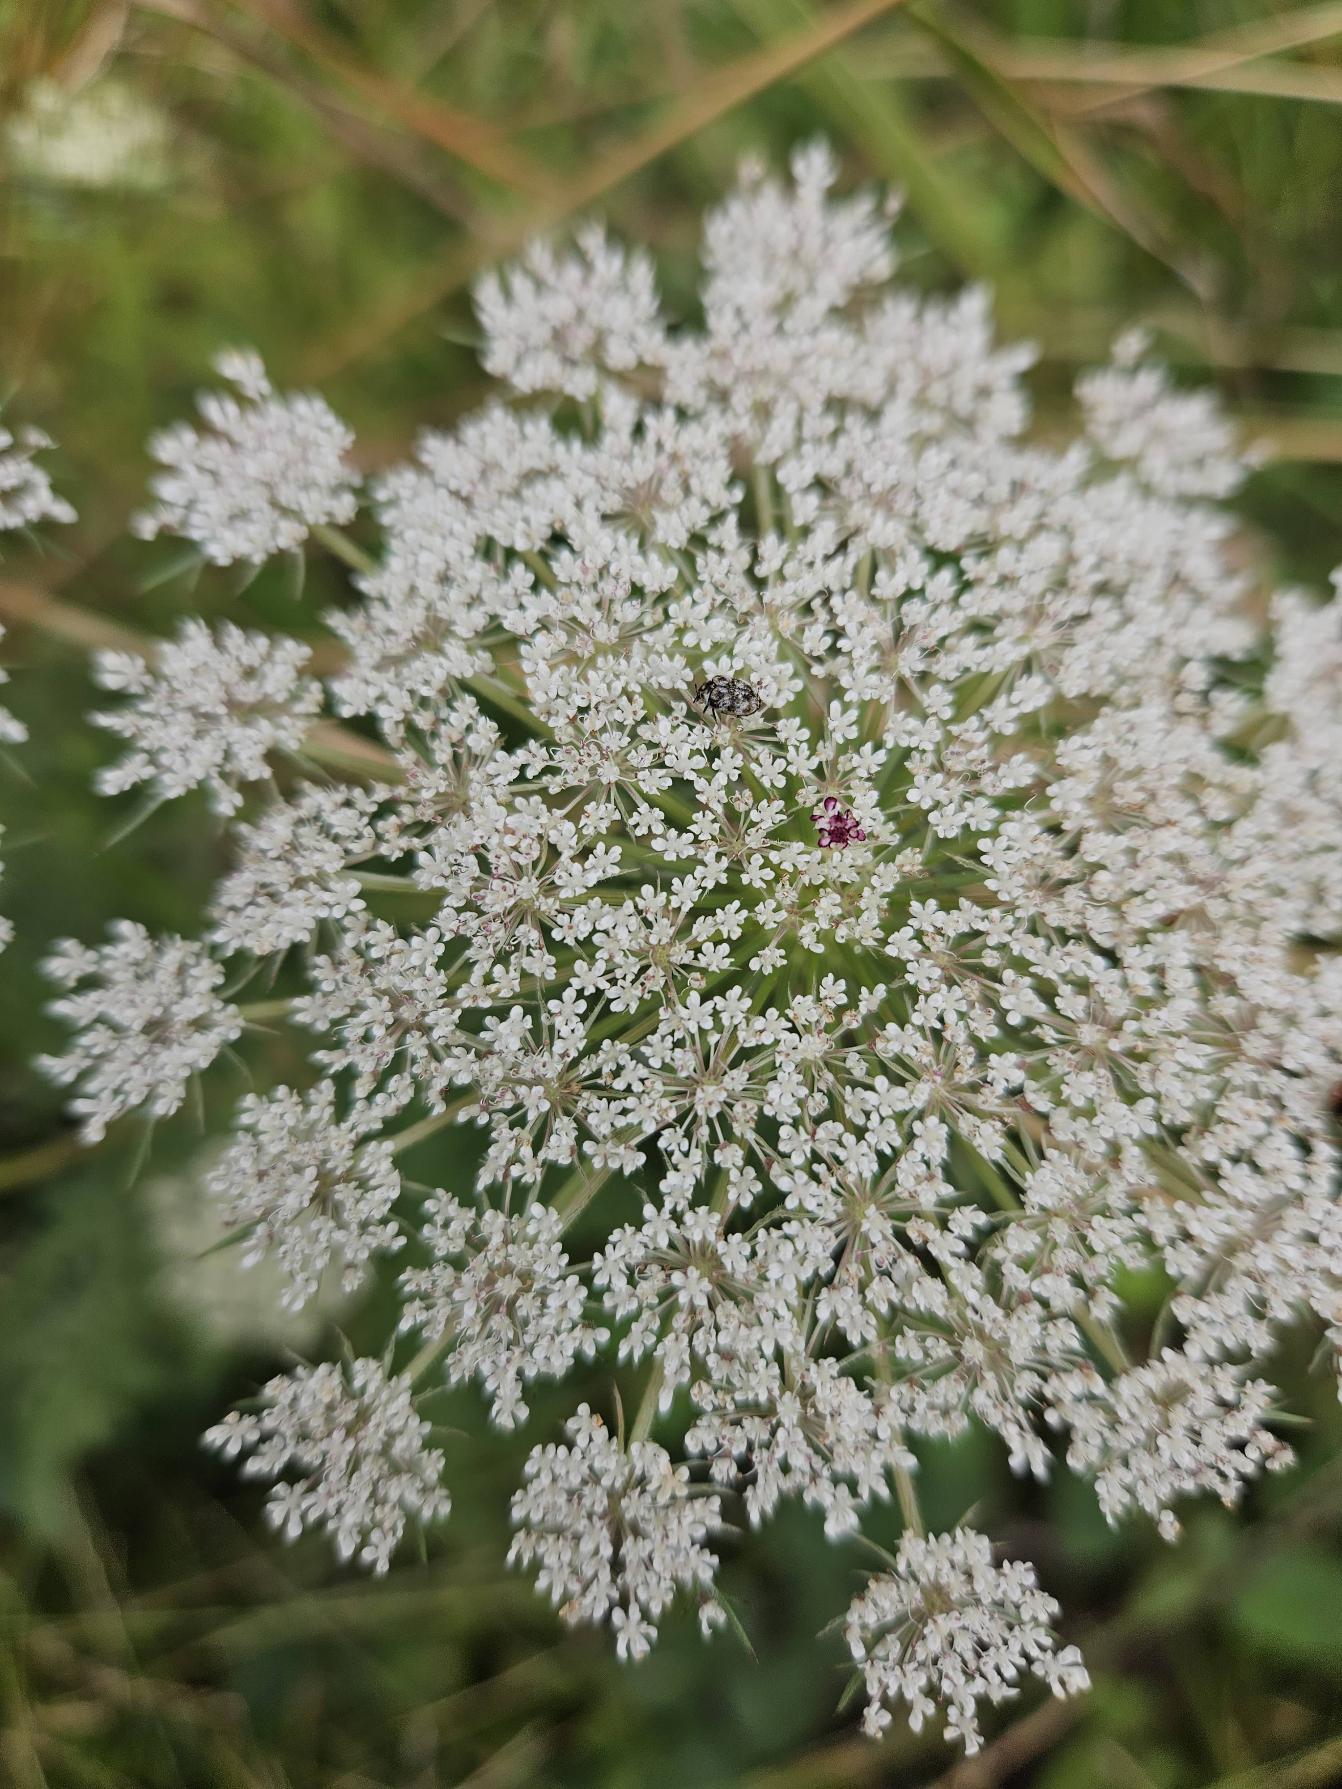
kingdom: Plantae
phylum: Tracheophyta
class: Magnoliopsida
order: Apiales
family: Apiaceae
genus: Daucus
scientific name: Daucus carota
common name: Gulerod
